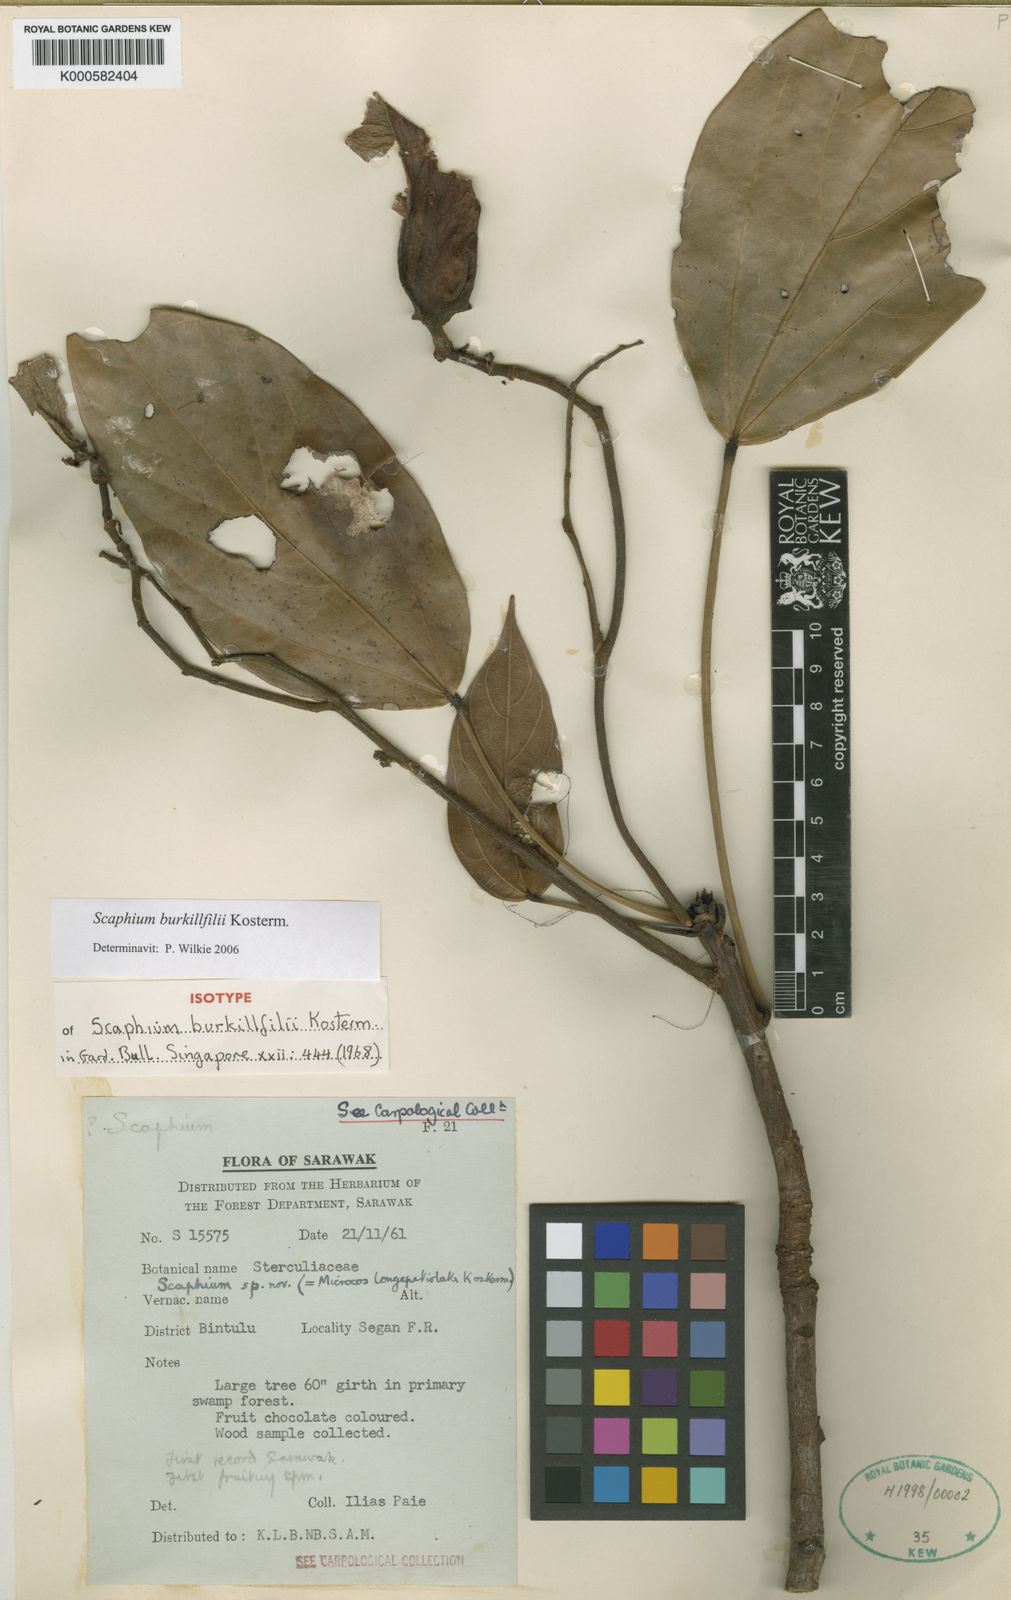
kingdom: Plantae
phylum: Tracheophyta
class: Magnoliopsida
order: Malvales
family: Malvaceae
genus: Scaphium
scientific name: Scaphium burkillfilii
